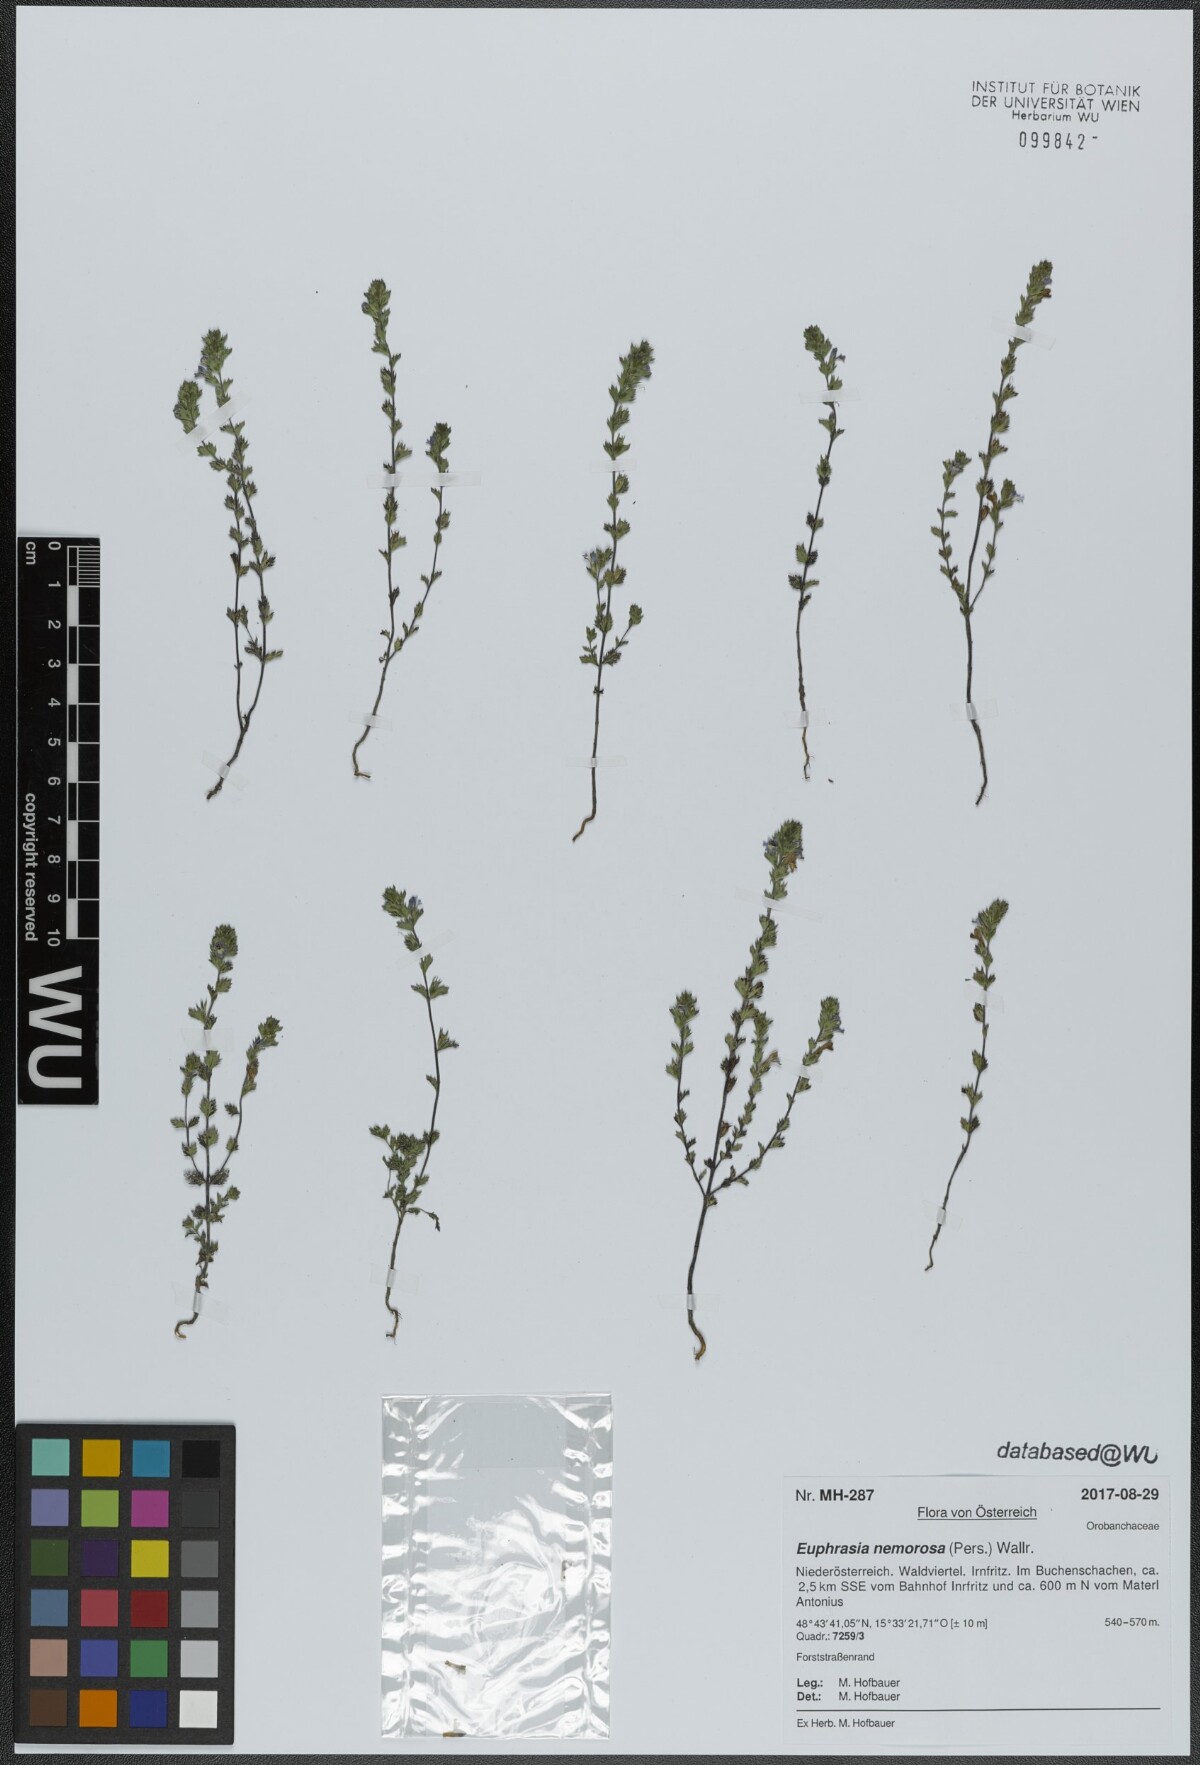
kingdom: Plantae
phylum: Tracheophyta
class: Magnoliopsida
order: Lamiales
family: Orobanchaceae
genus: Euphrasia
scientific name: Euphrasia nemorosa
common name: Common eyebright
